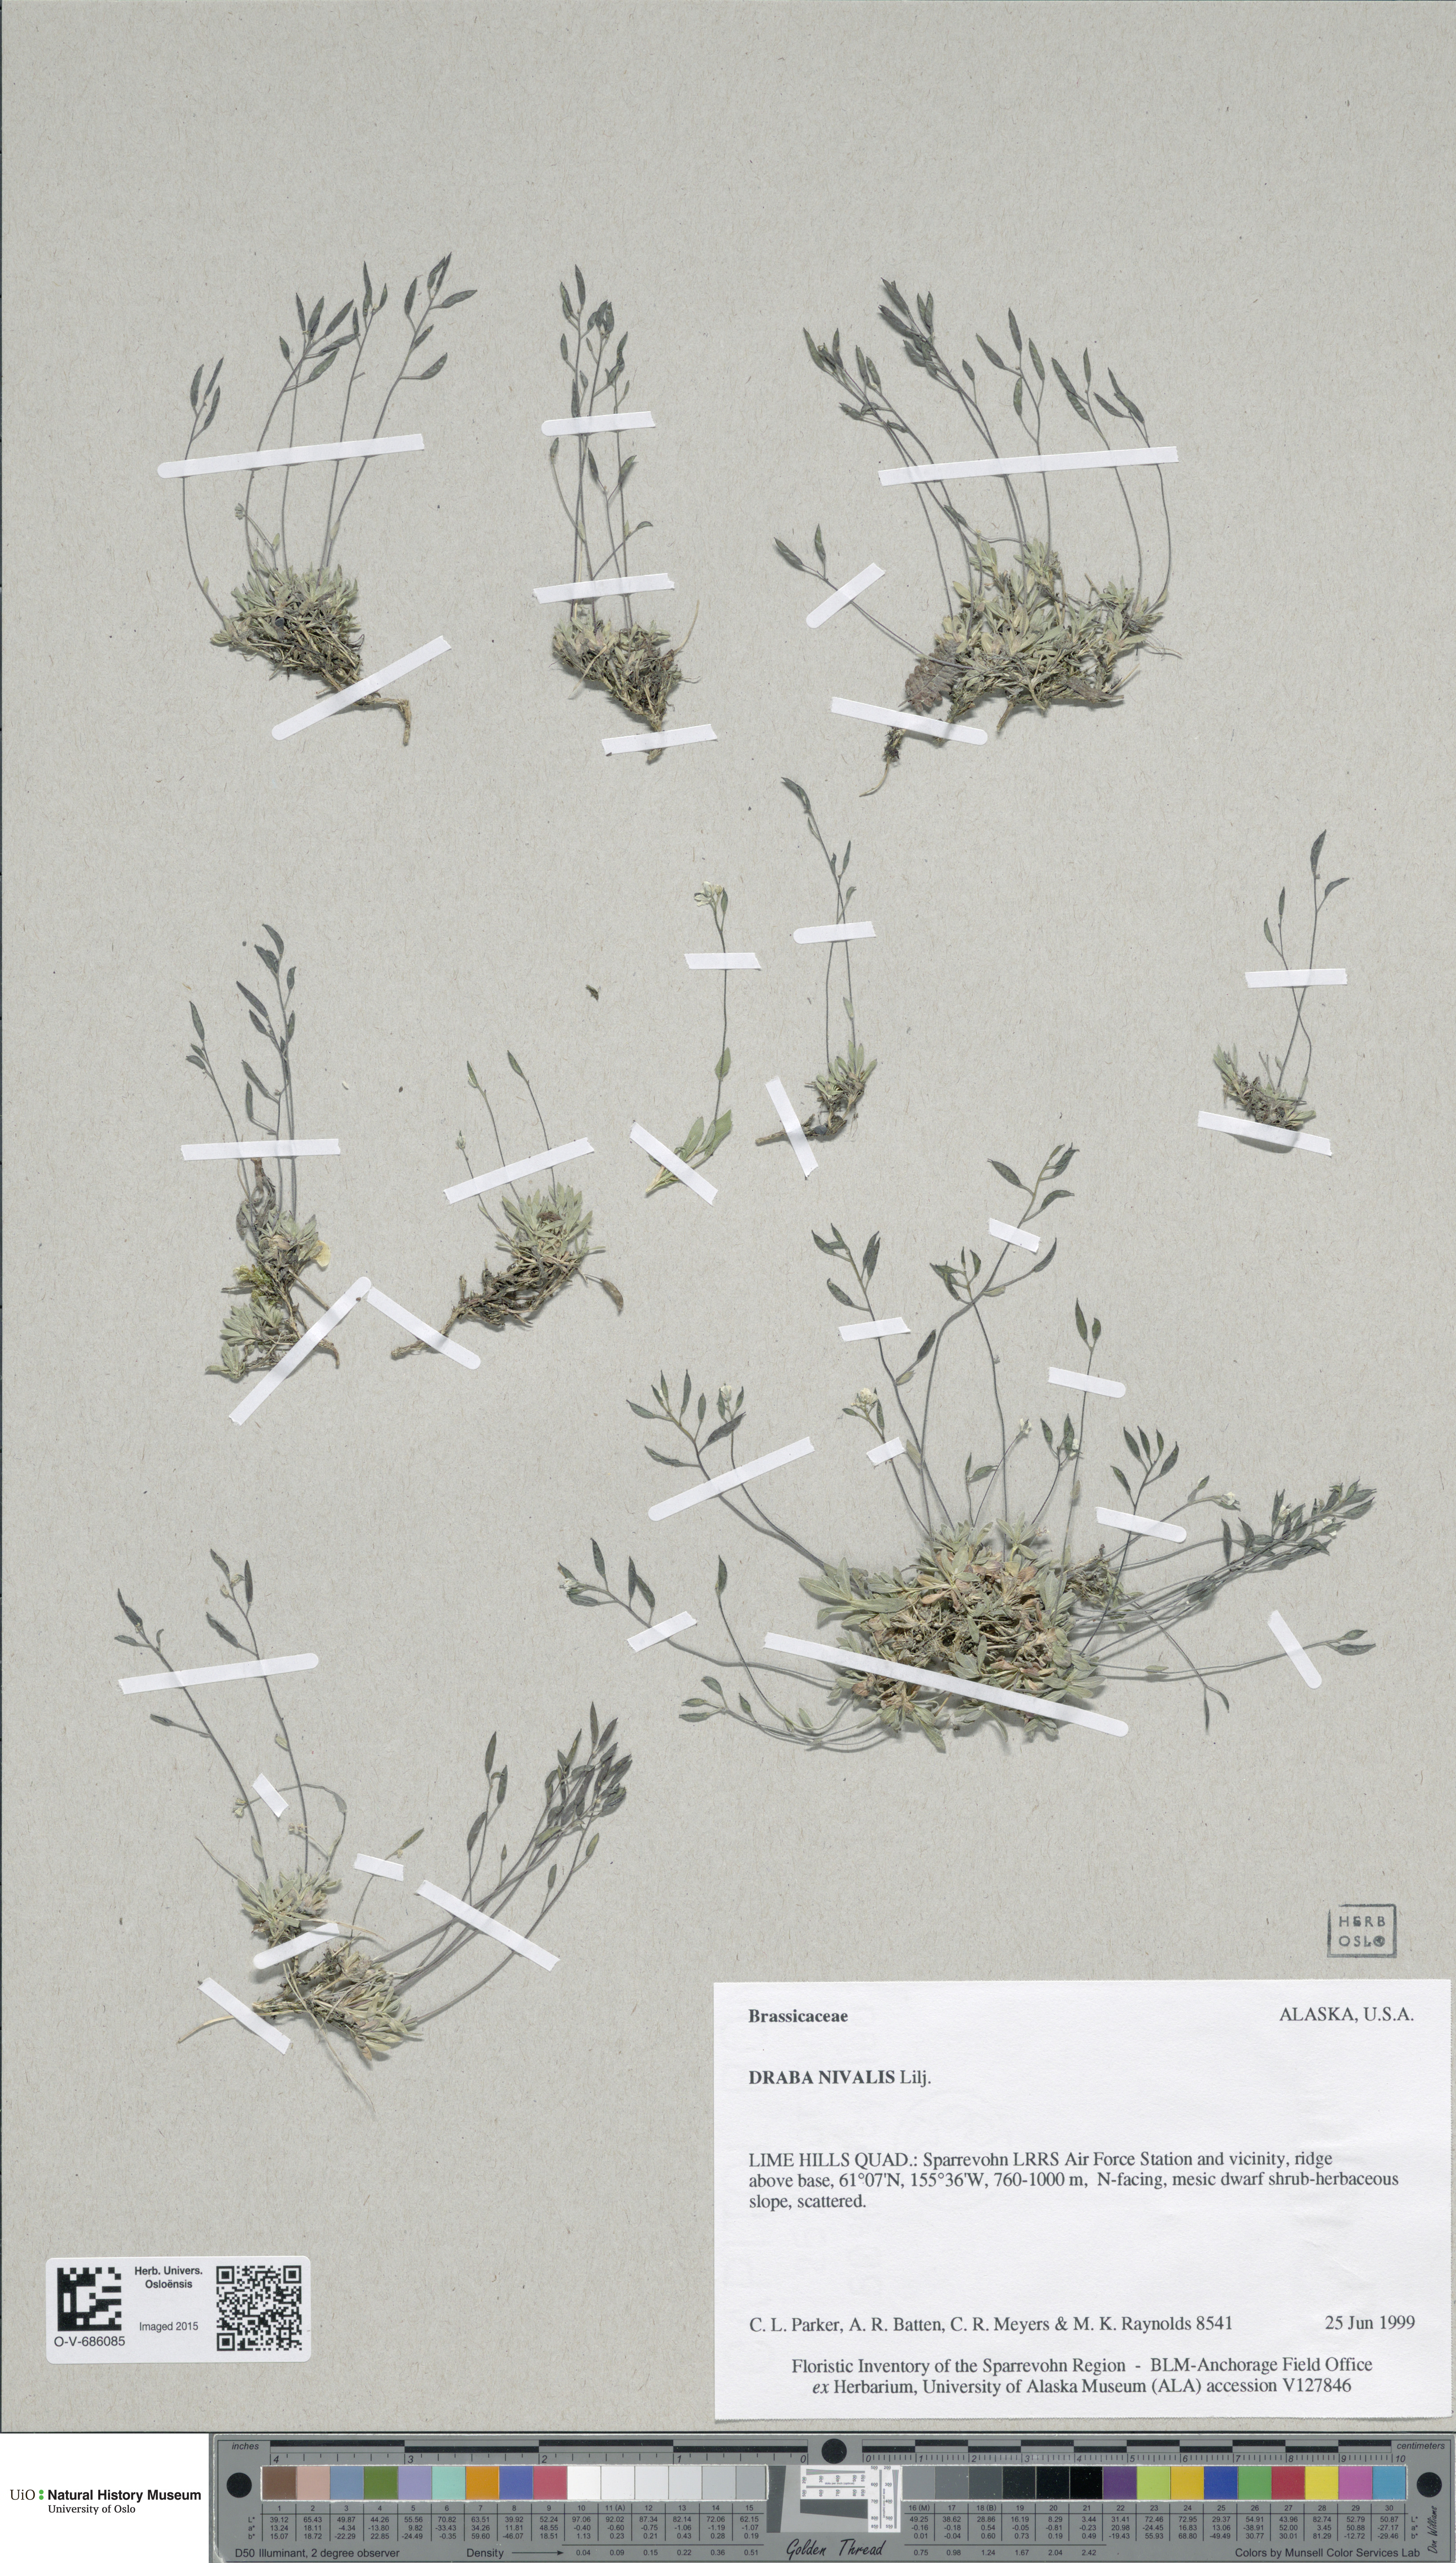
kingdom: Plantae
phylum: Tracheophyta
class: Magnoliopsida
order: Brassicales
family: Brassicaceae
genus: Draba
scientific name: Draba nivalis
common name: Snow draba
